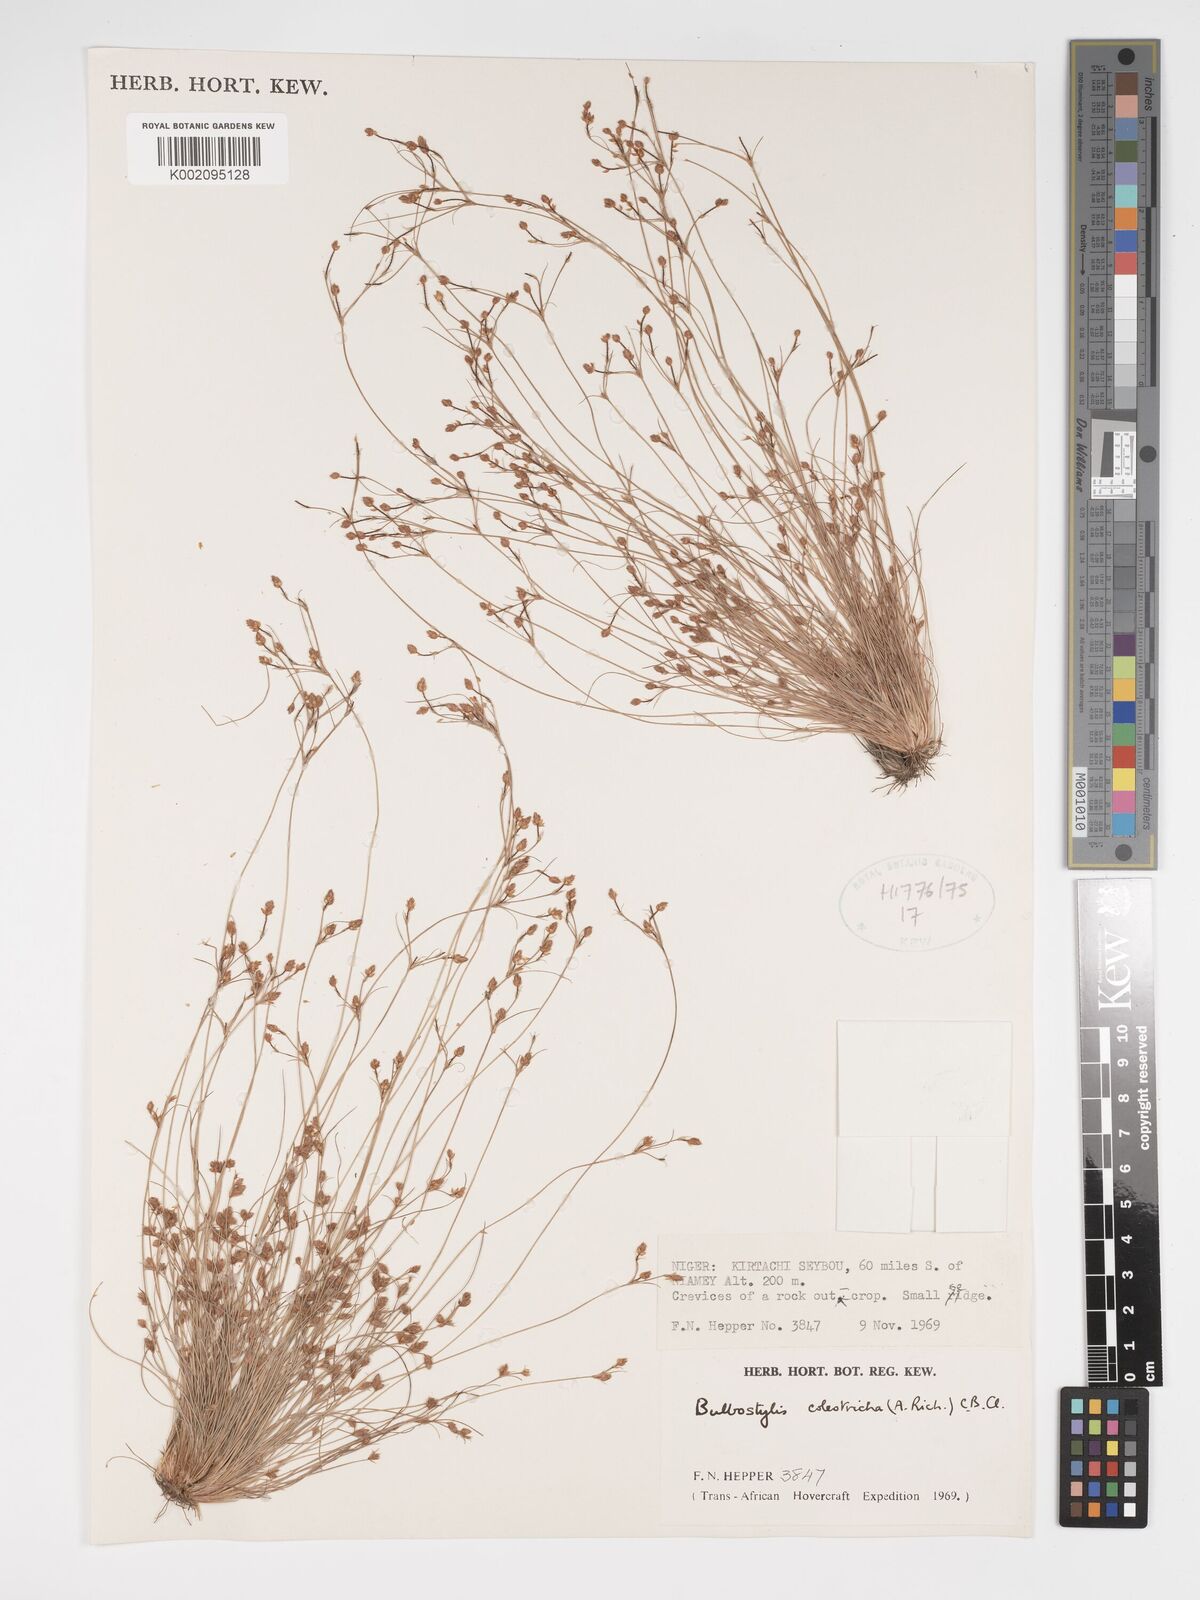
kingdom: Plantae
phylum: Tracheophyta
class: Liliopsida
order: Poales
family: Cyperaceae
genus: Bulbostylis
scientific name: Bulbostylis coleotricha
